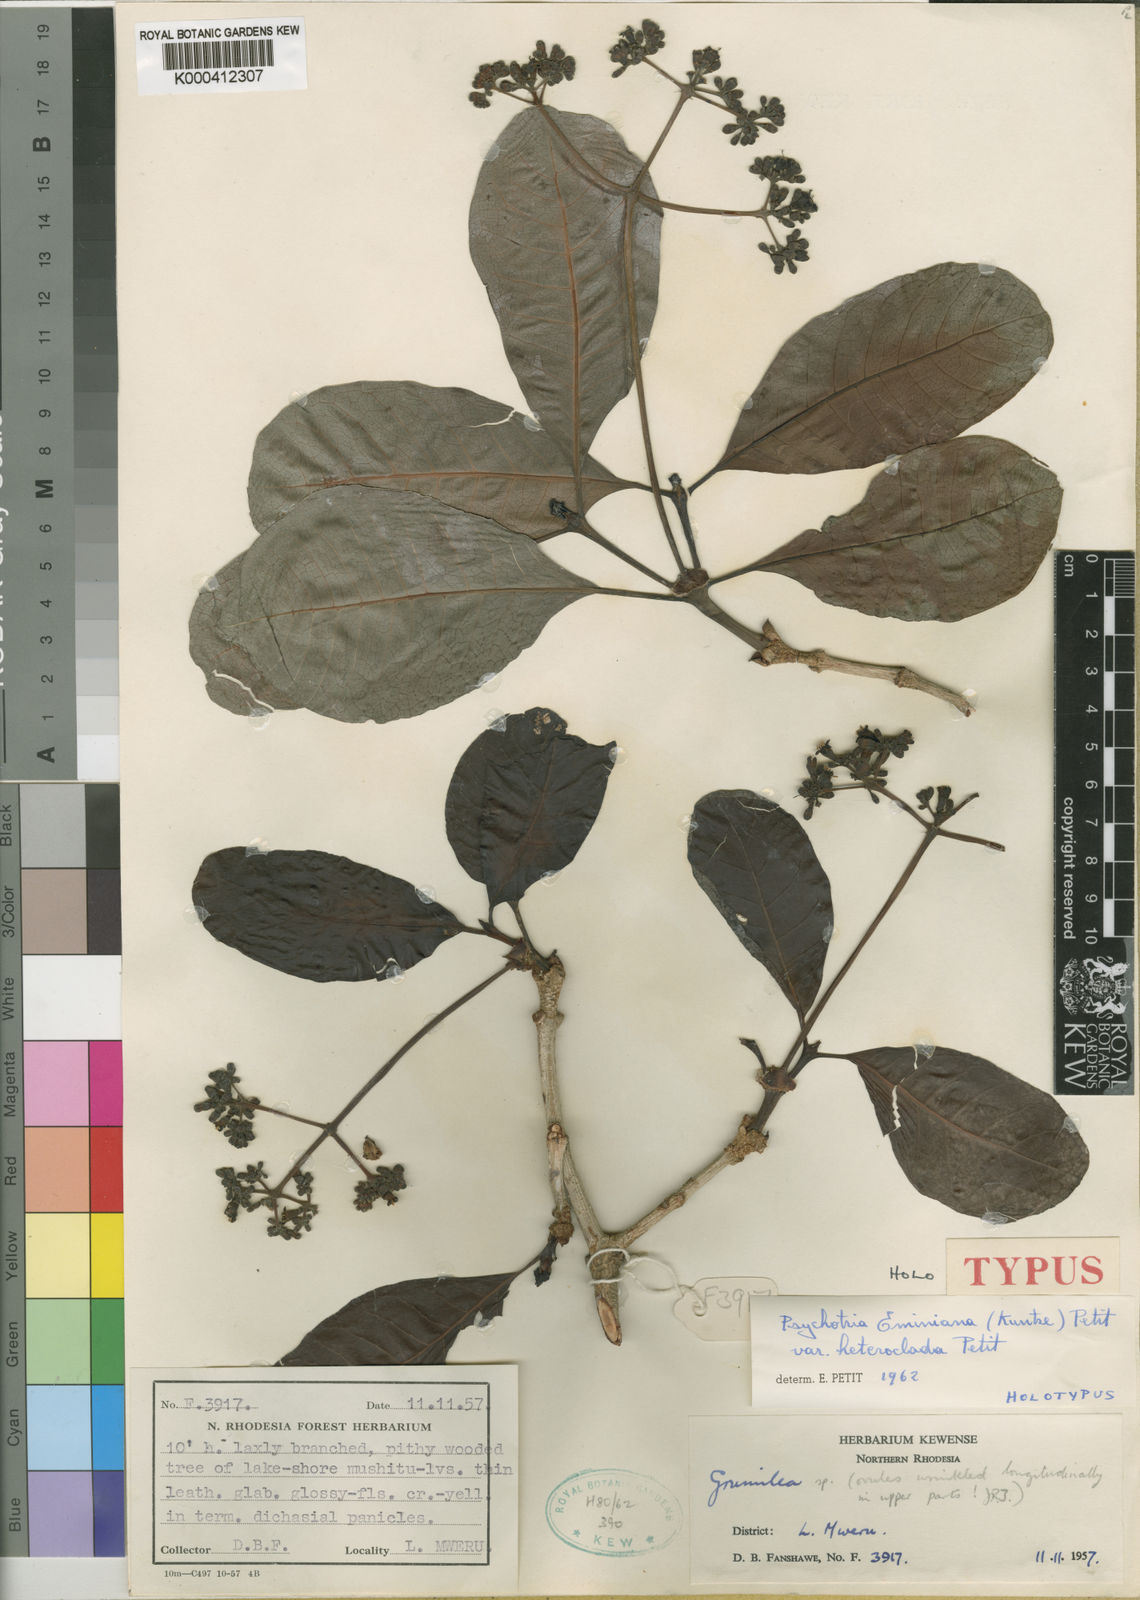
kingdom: Plantae
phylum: Tracheophyta
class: Magnoliopsida
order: Gentianales
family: Rubiaceae
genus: Psychotria
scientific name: Psychotria eminiana
